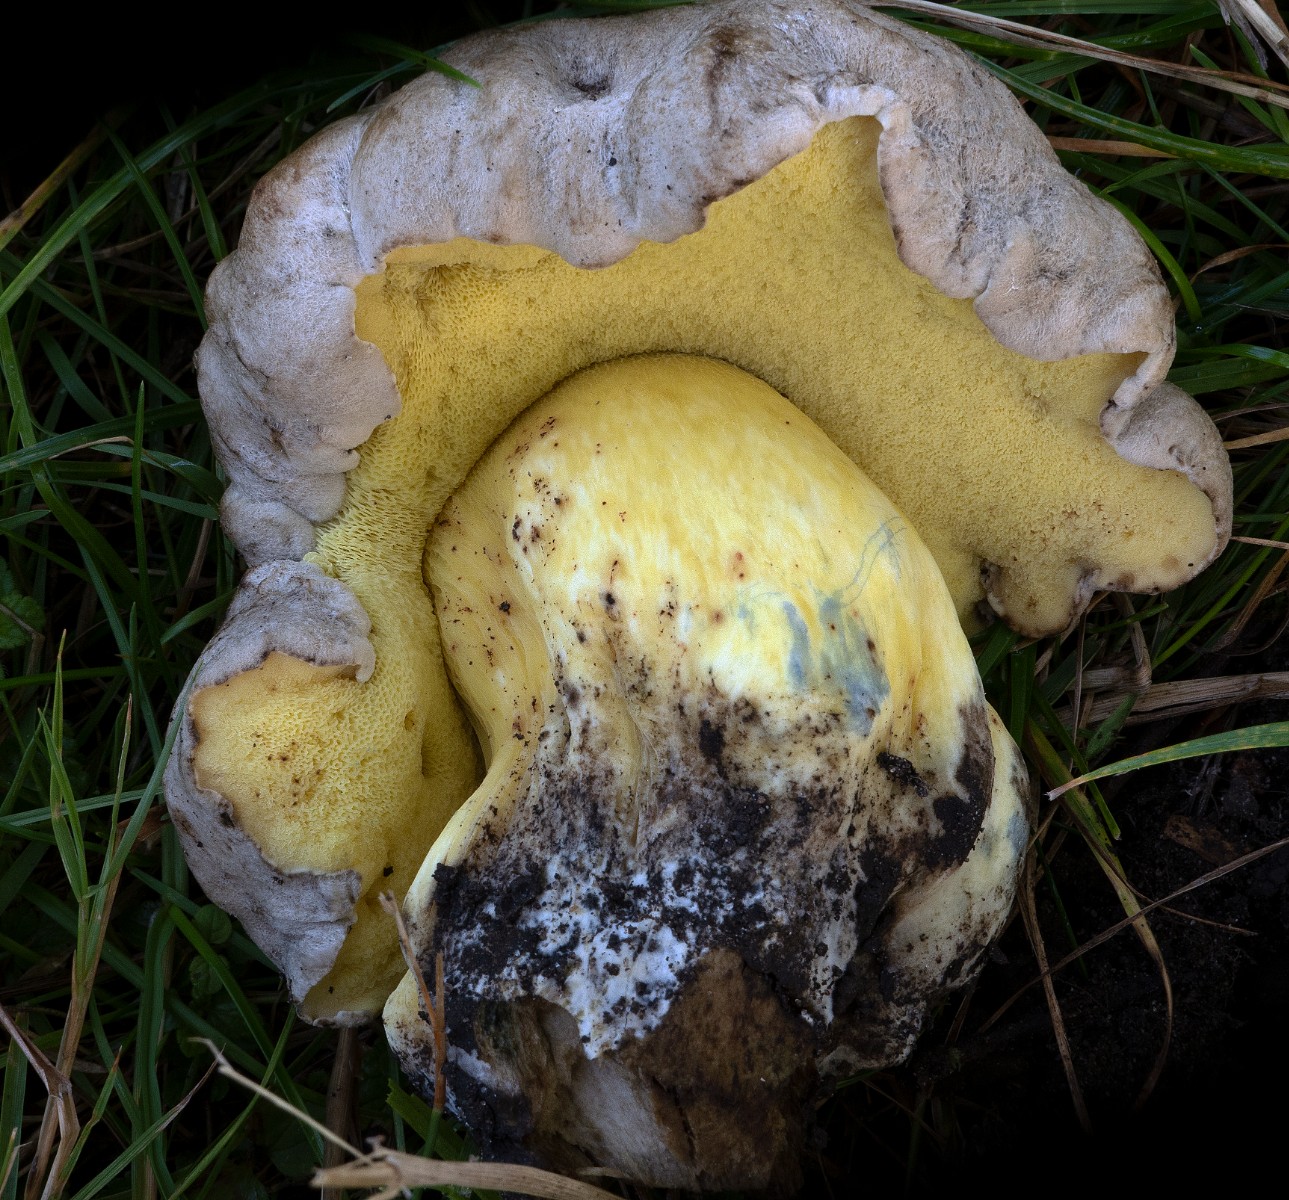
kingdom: Fungi
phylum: Basidiomycota
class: Agaricomycetes
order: Boletales
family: Boletaceae
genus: Caloboletus
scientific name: Caloboletus radicans
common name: rod-rørhat
